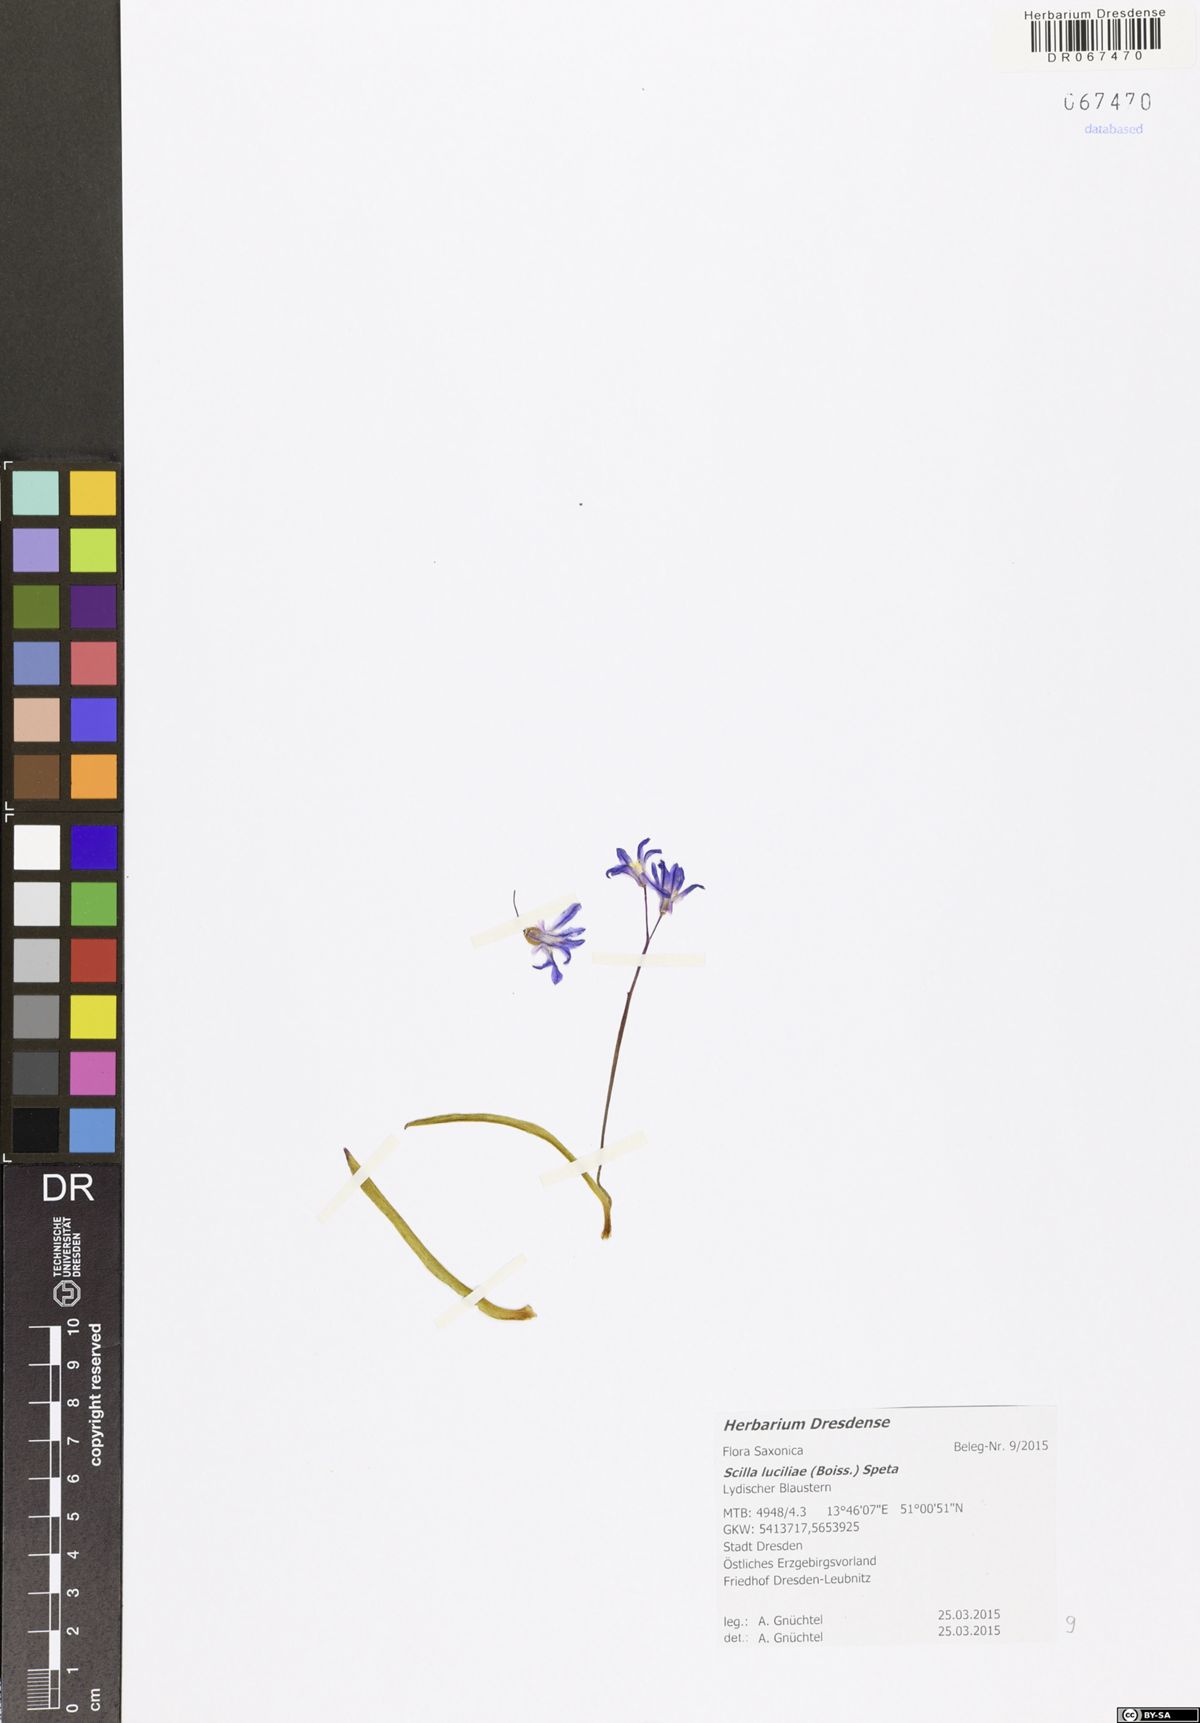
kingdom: Plantae
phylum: Tracheophyta
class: Liliopsida
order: Asparagales
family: Asparagaceae
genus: Scilla
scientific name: Scilla siberica
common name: Siberian squill
